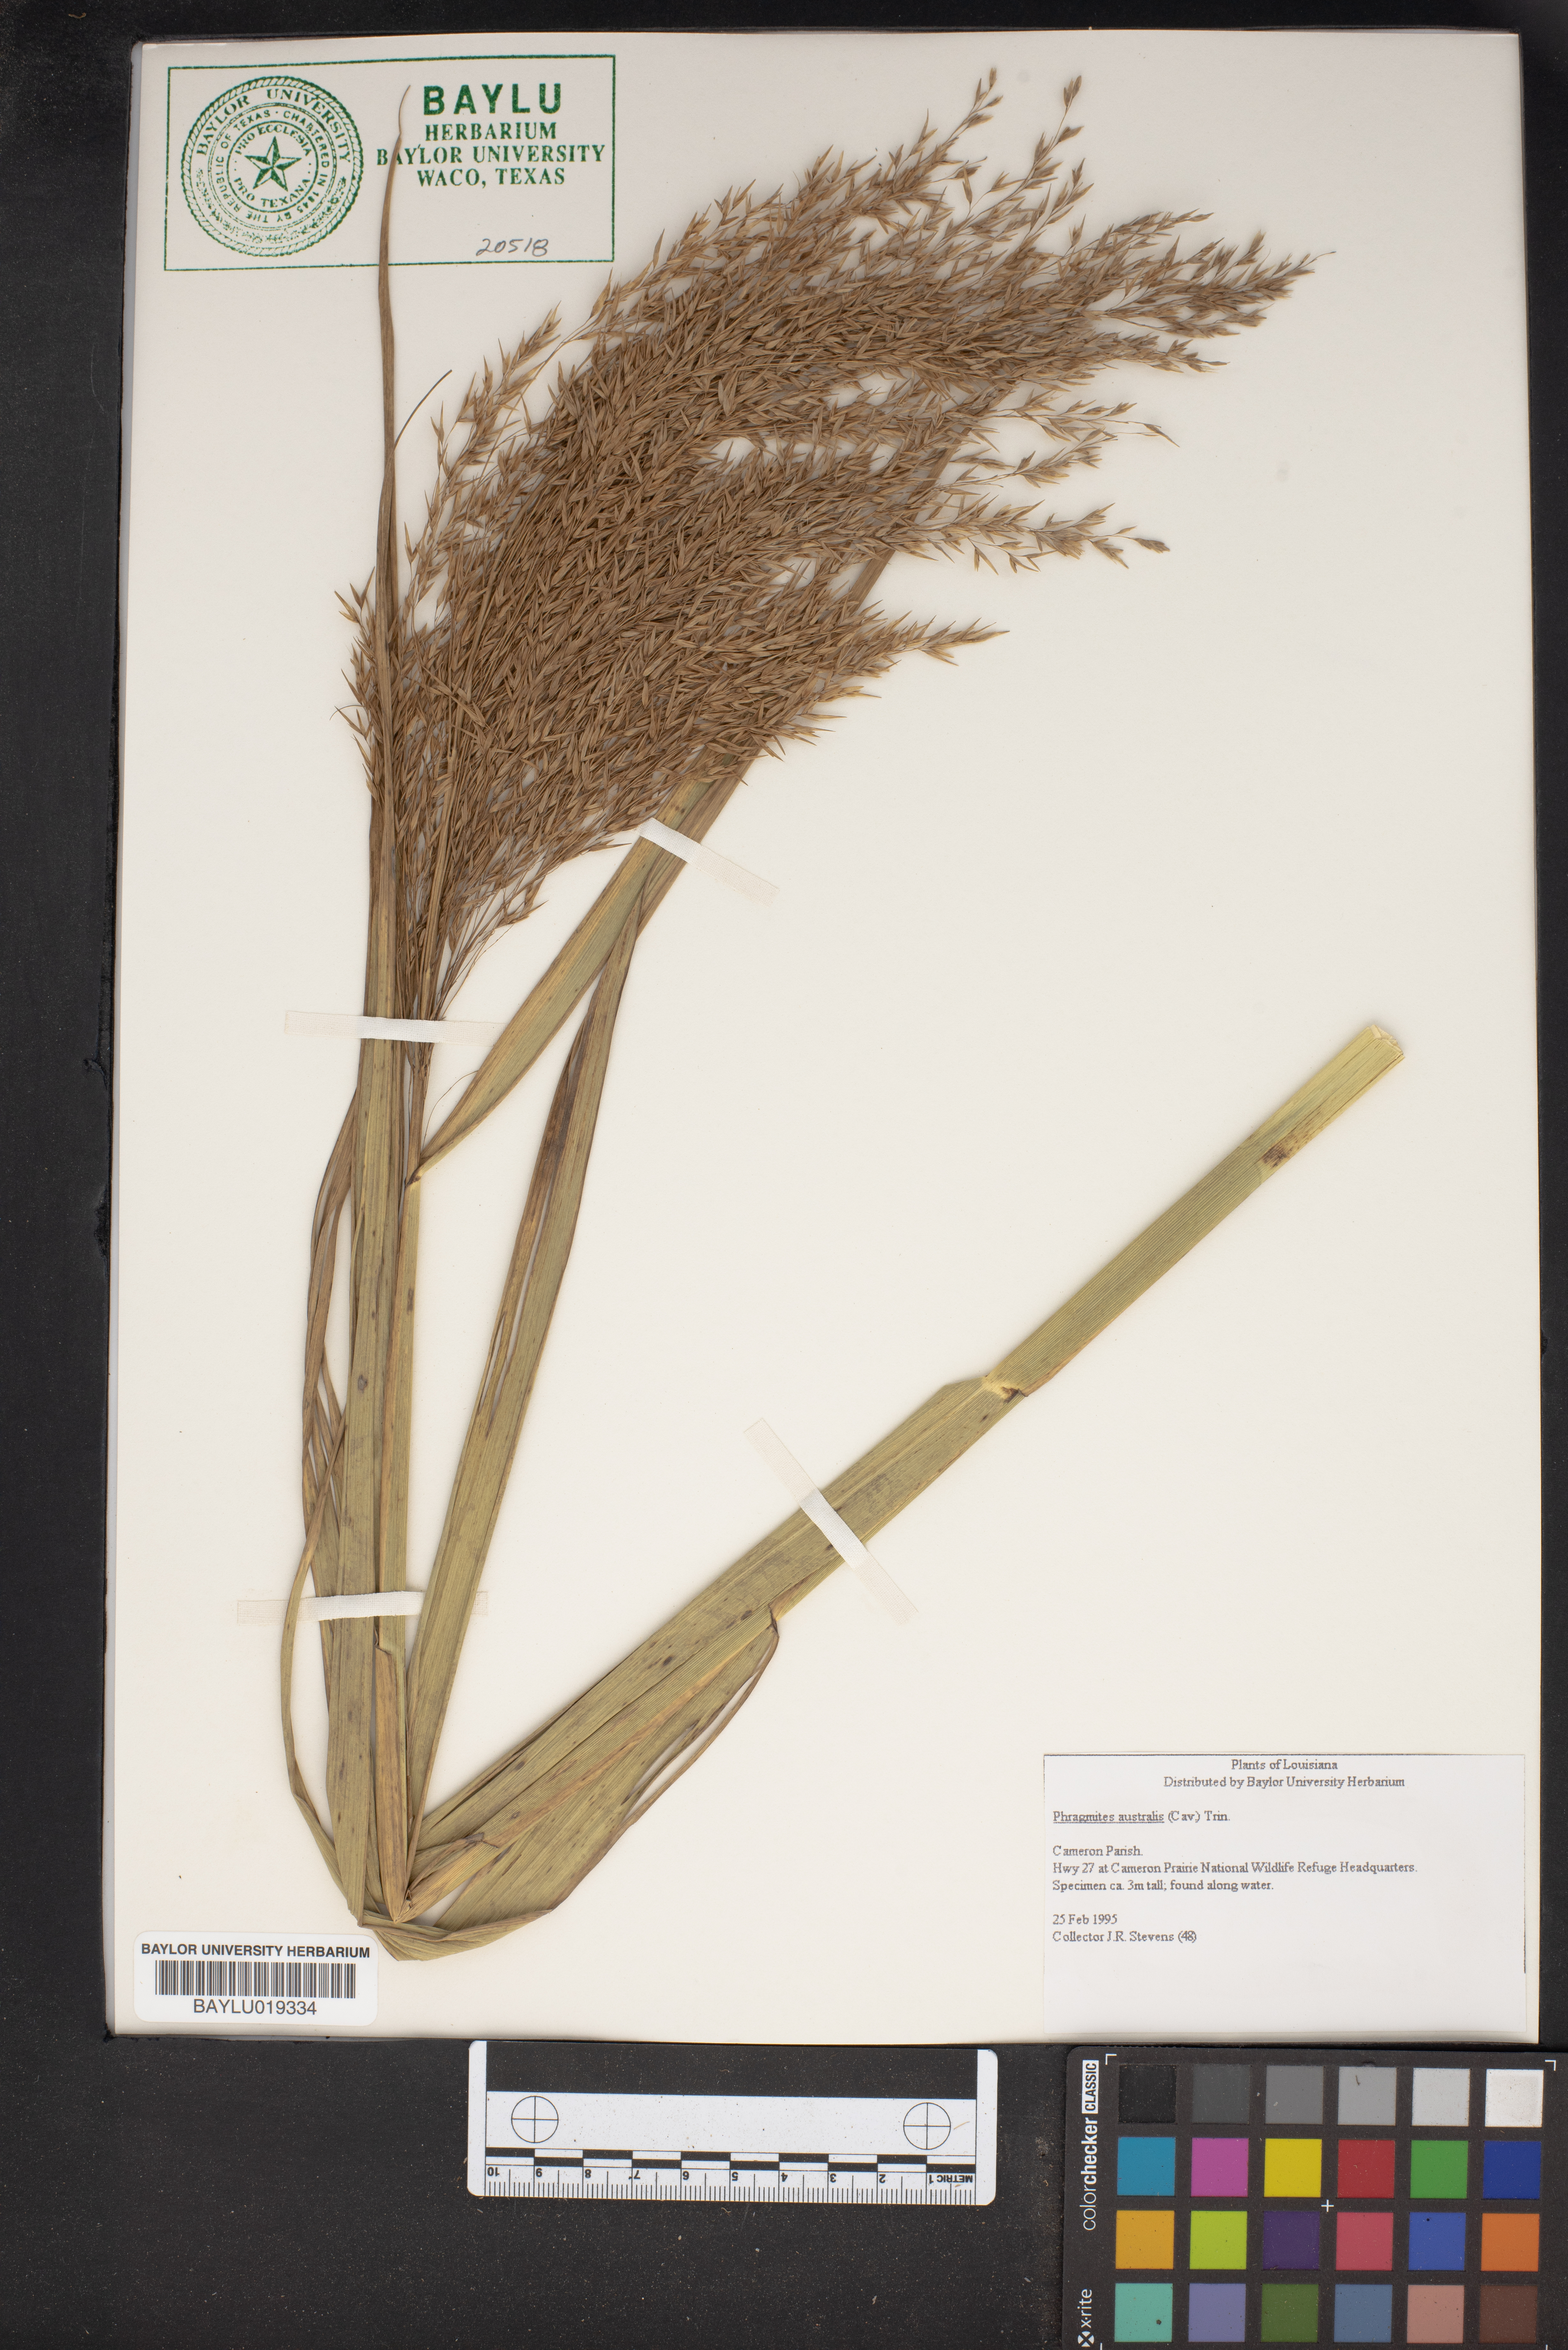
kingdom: Plantae
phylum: Tracheophyta
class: Liliopsida
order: Poales
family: Poaceae
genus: Phragmites
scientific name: Phragmites australis
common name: Common reed
